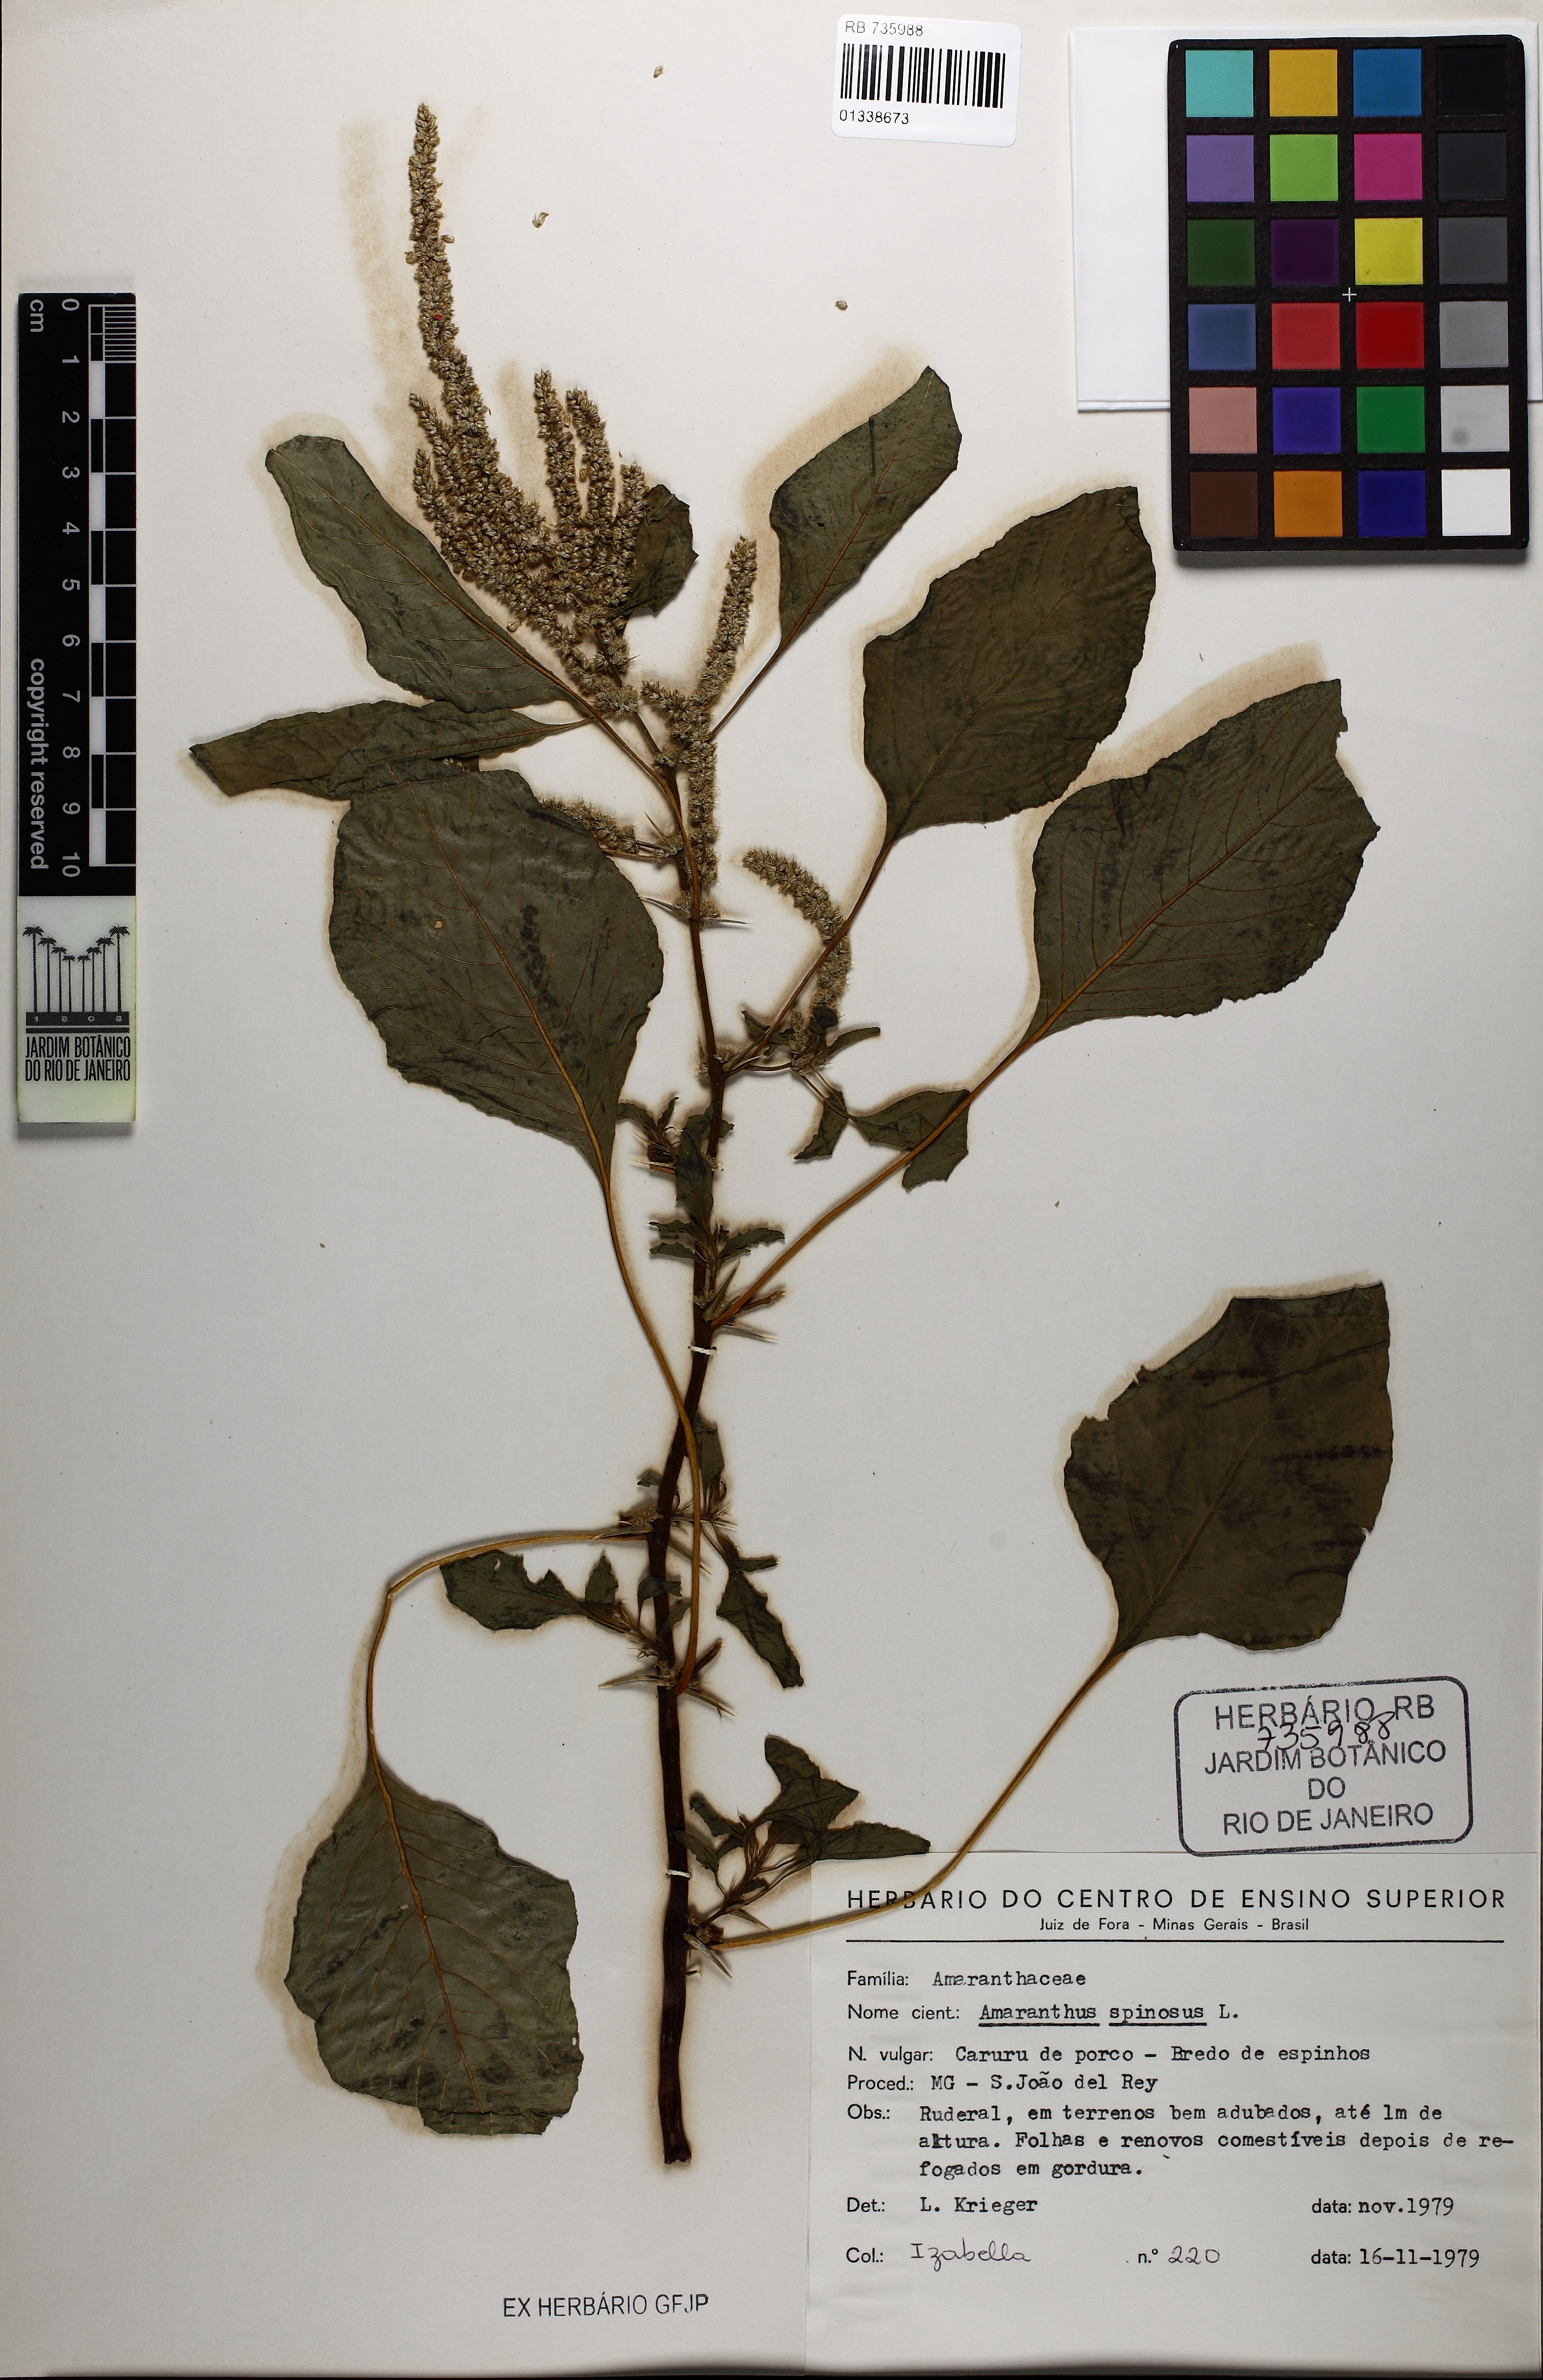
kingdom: Plantae
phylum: Tracheophyta
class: Magnoliopsida
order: Caryophyllales
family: Amaranthaceae
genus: Amaranthus
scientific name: Amaranthus spinosus
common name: Spiny amaranth
